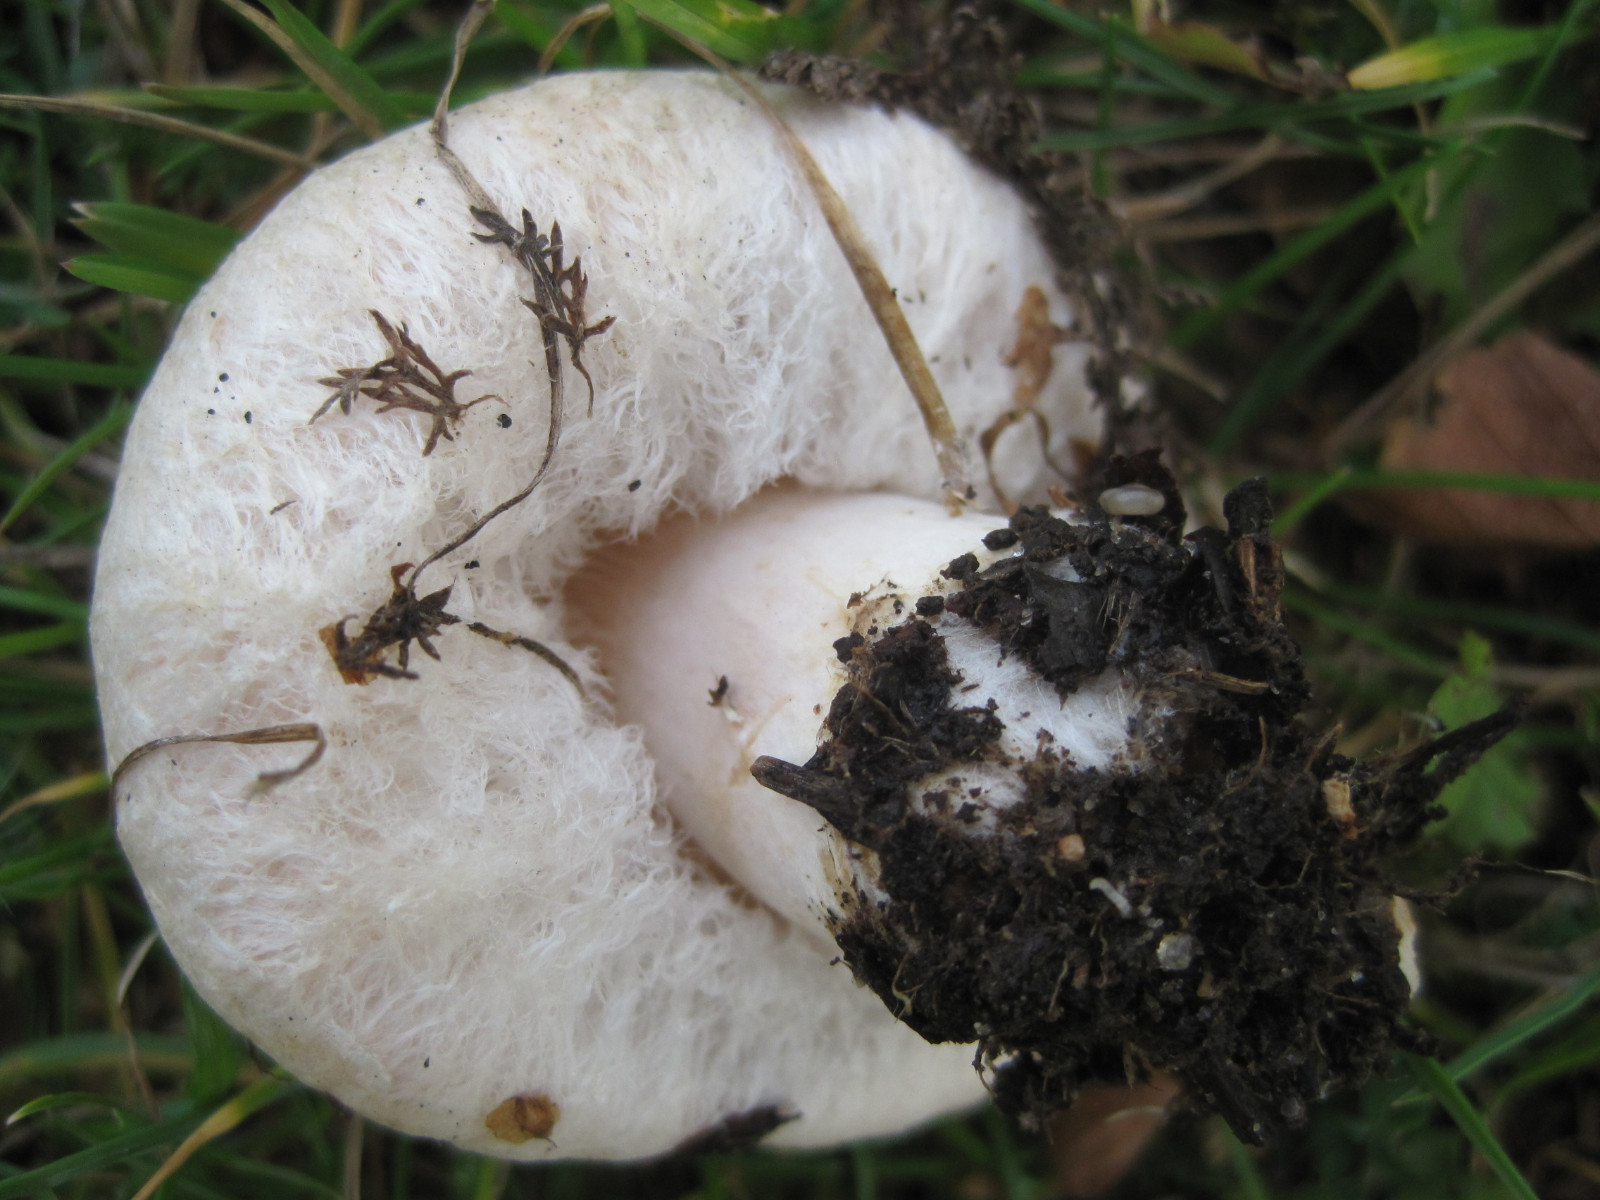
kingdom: Fungi
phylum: Basidiomycota
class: Agaricomycetes
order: Russulales
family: Russulaceae
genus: Lactarius
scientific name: Lactarius pubescens
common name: dunet mælkehat
